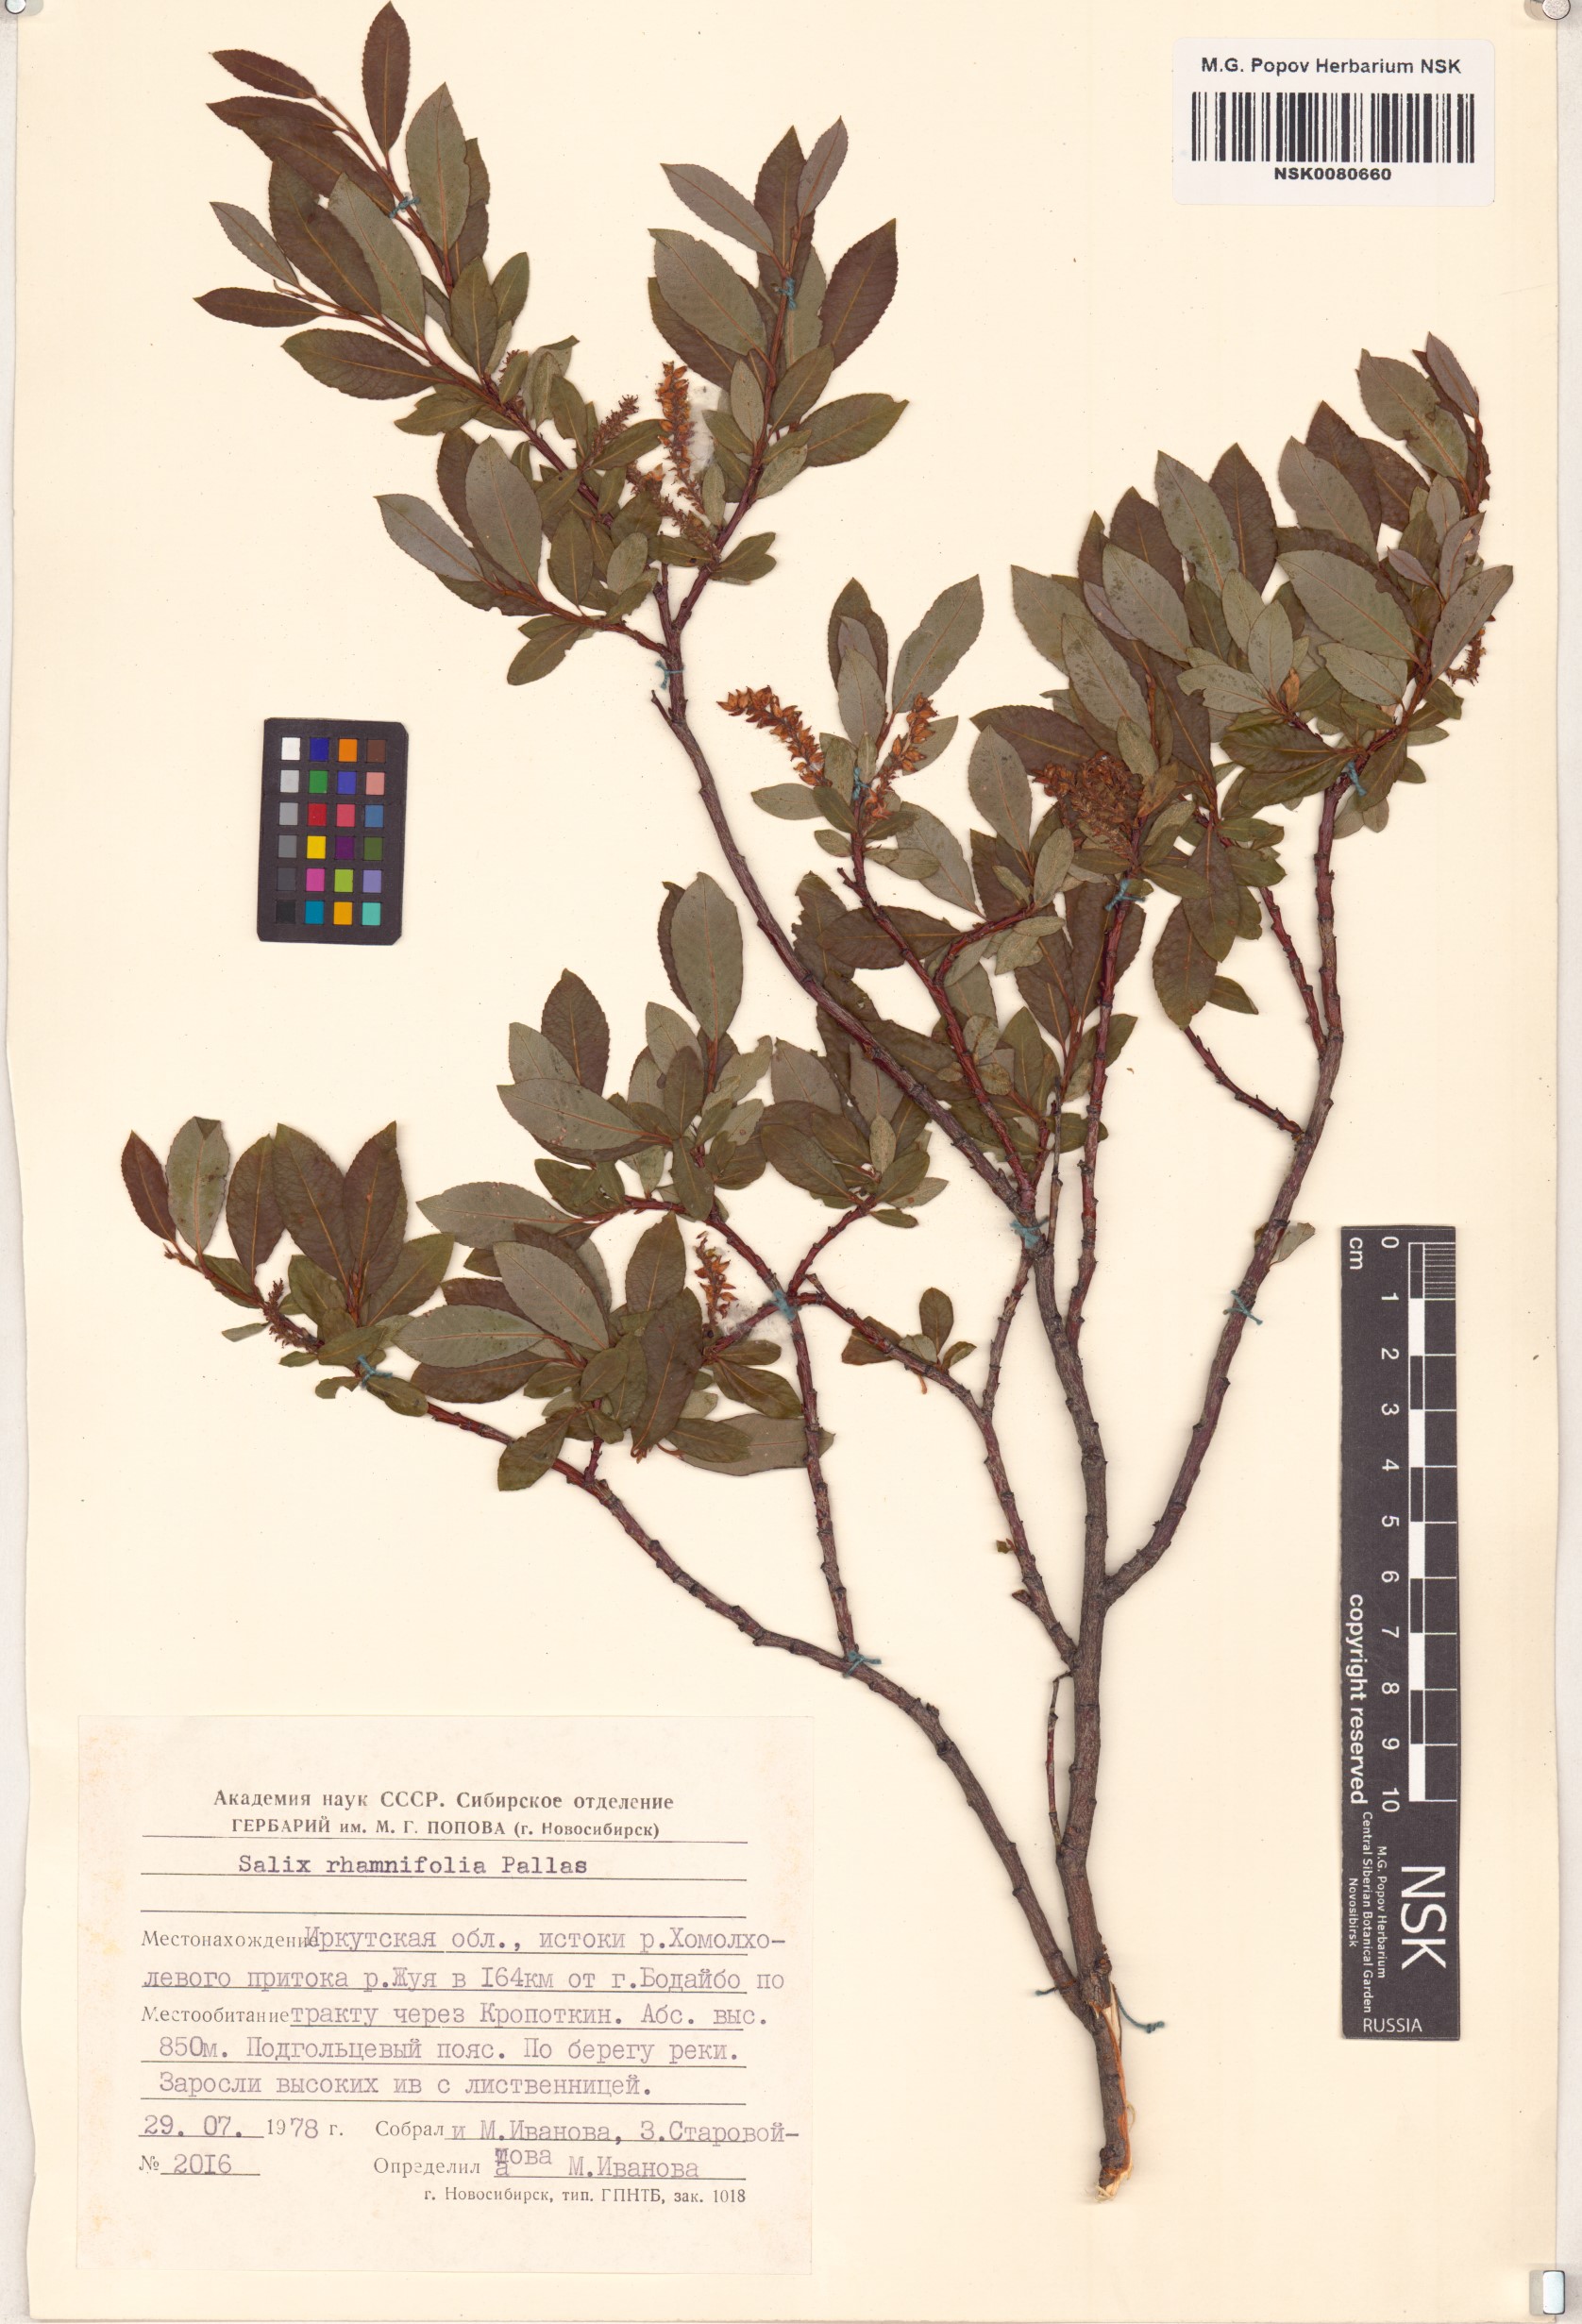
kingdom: Plantae
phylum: Tracheophyta
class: Magnoliopsida
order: Malpighiales
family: Salicaceae
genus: Salix
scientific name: Salix rhamnifolia
